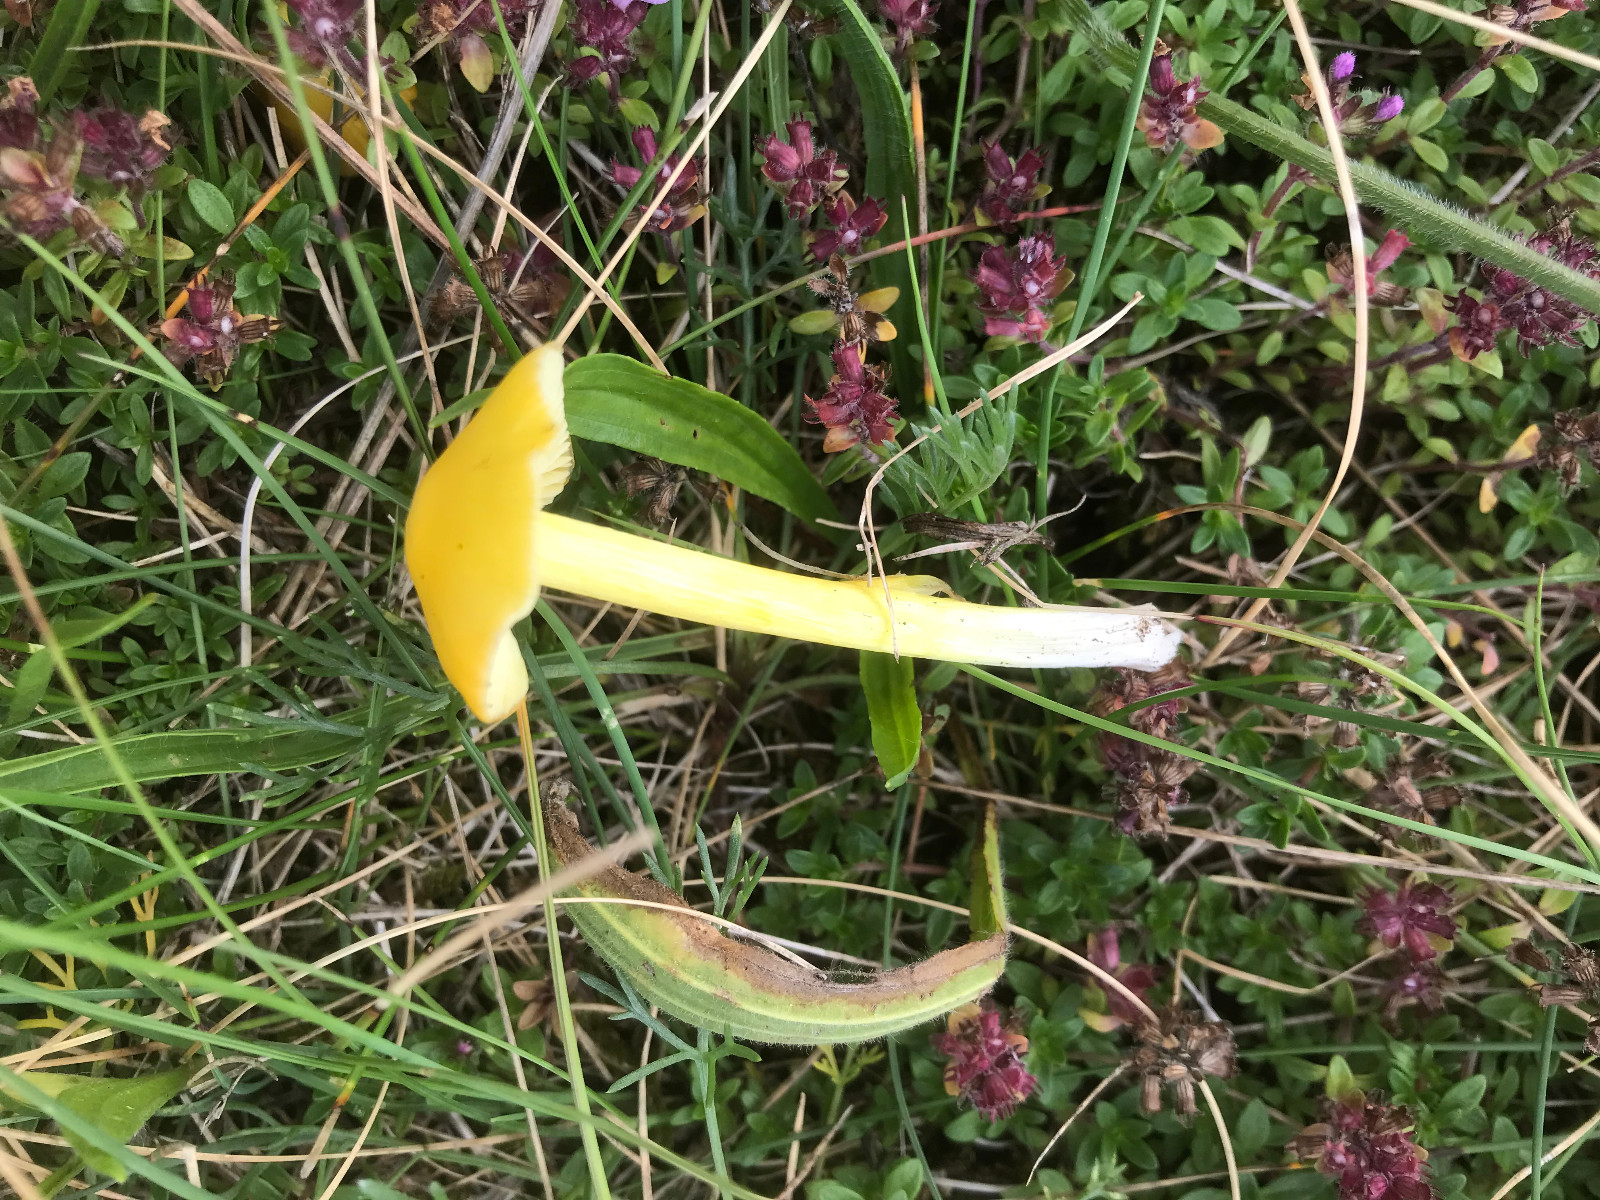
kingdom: Fungi
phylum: Basidiomycota
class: Agaricomycetes
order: Agaricales
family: Hygrophoraceae
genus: Hygrocybe
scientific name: Hygrocybe
